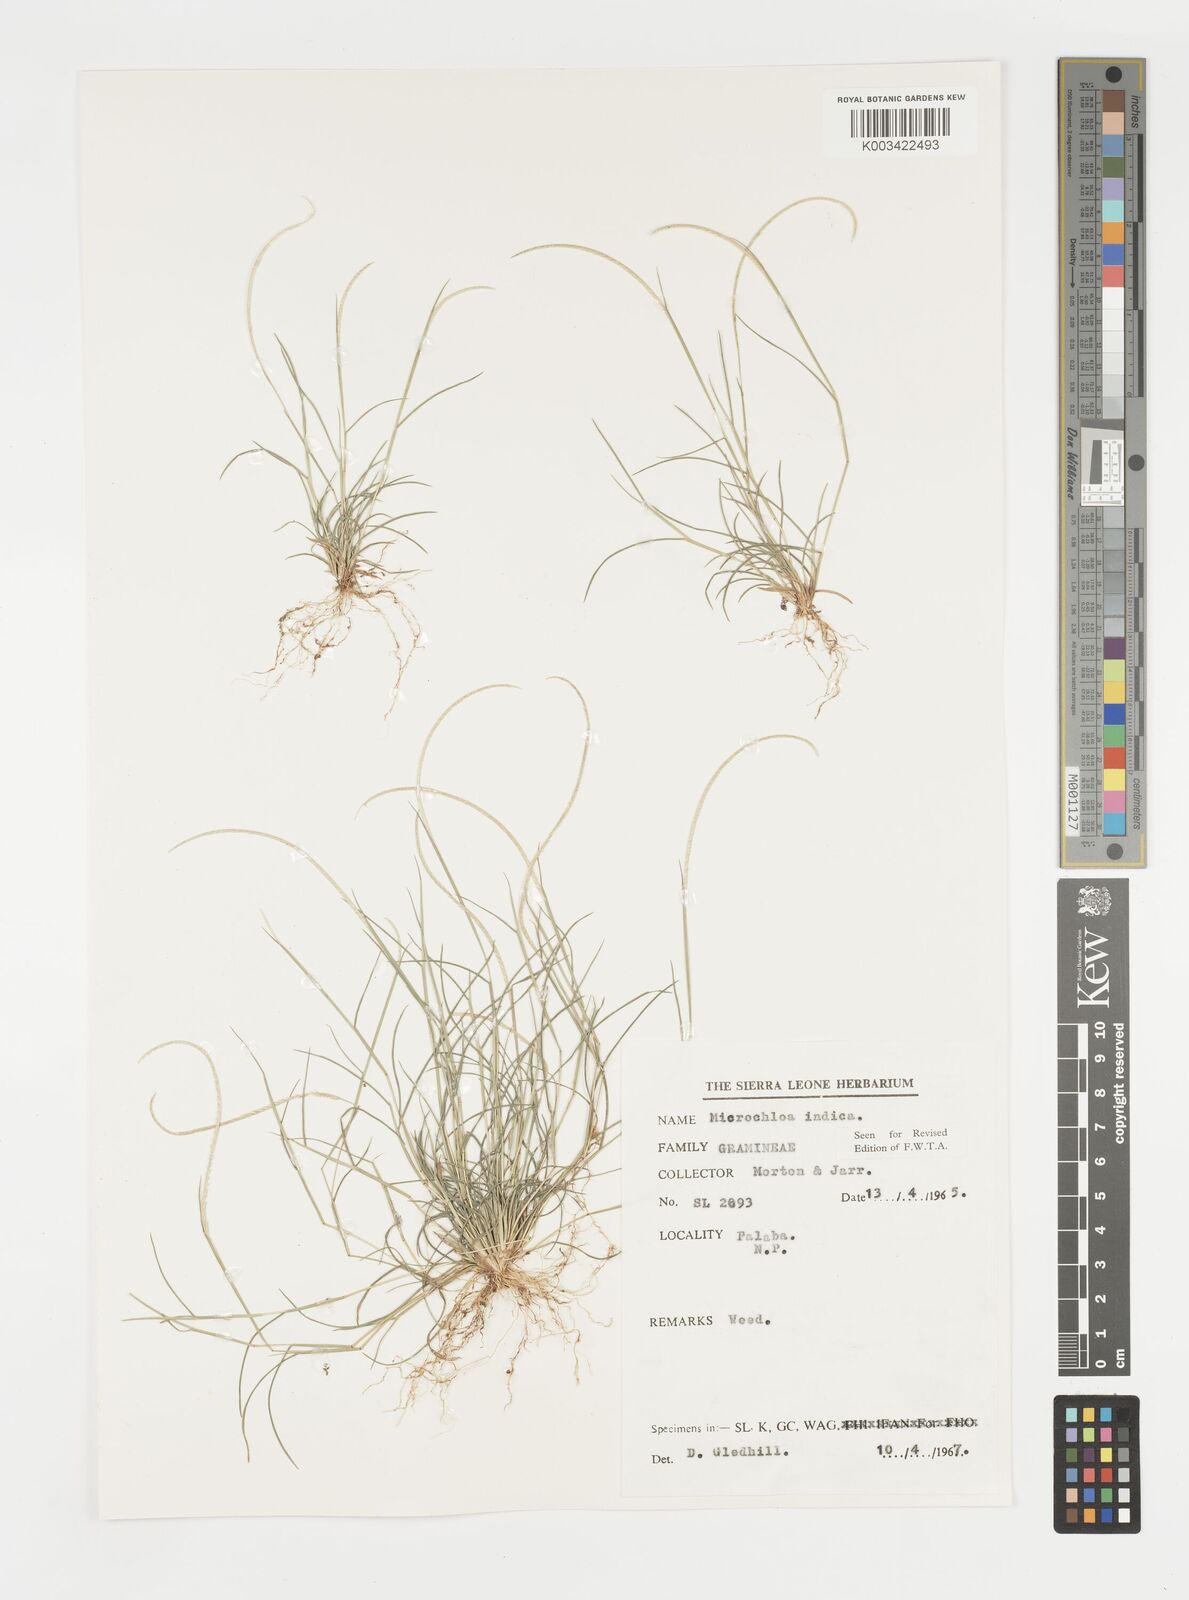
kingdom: Plantae
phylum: Tracheophyta
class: Liliopsida
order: Poales
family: Poaceae
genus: Microchloa
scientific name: Microchloa indica
